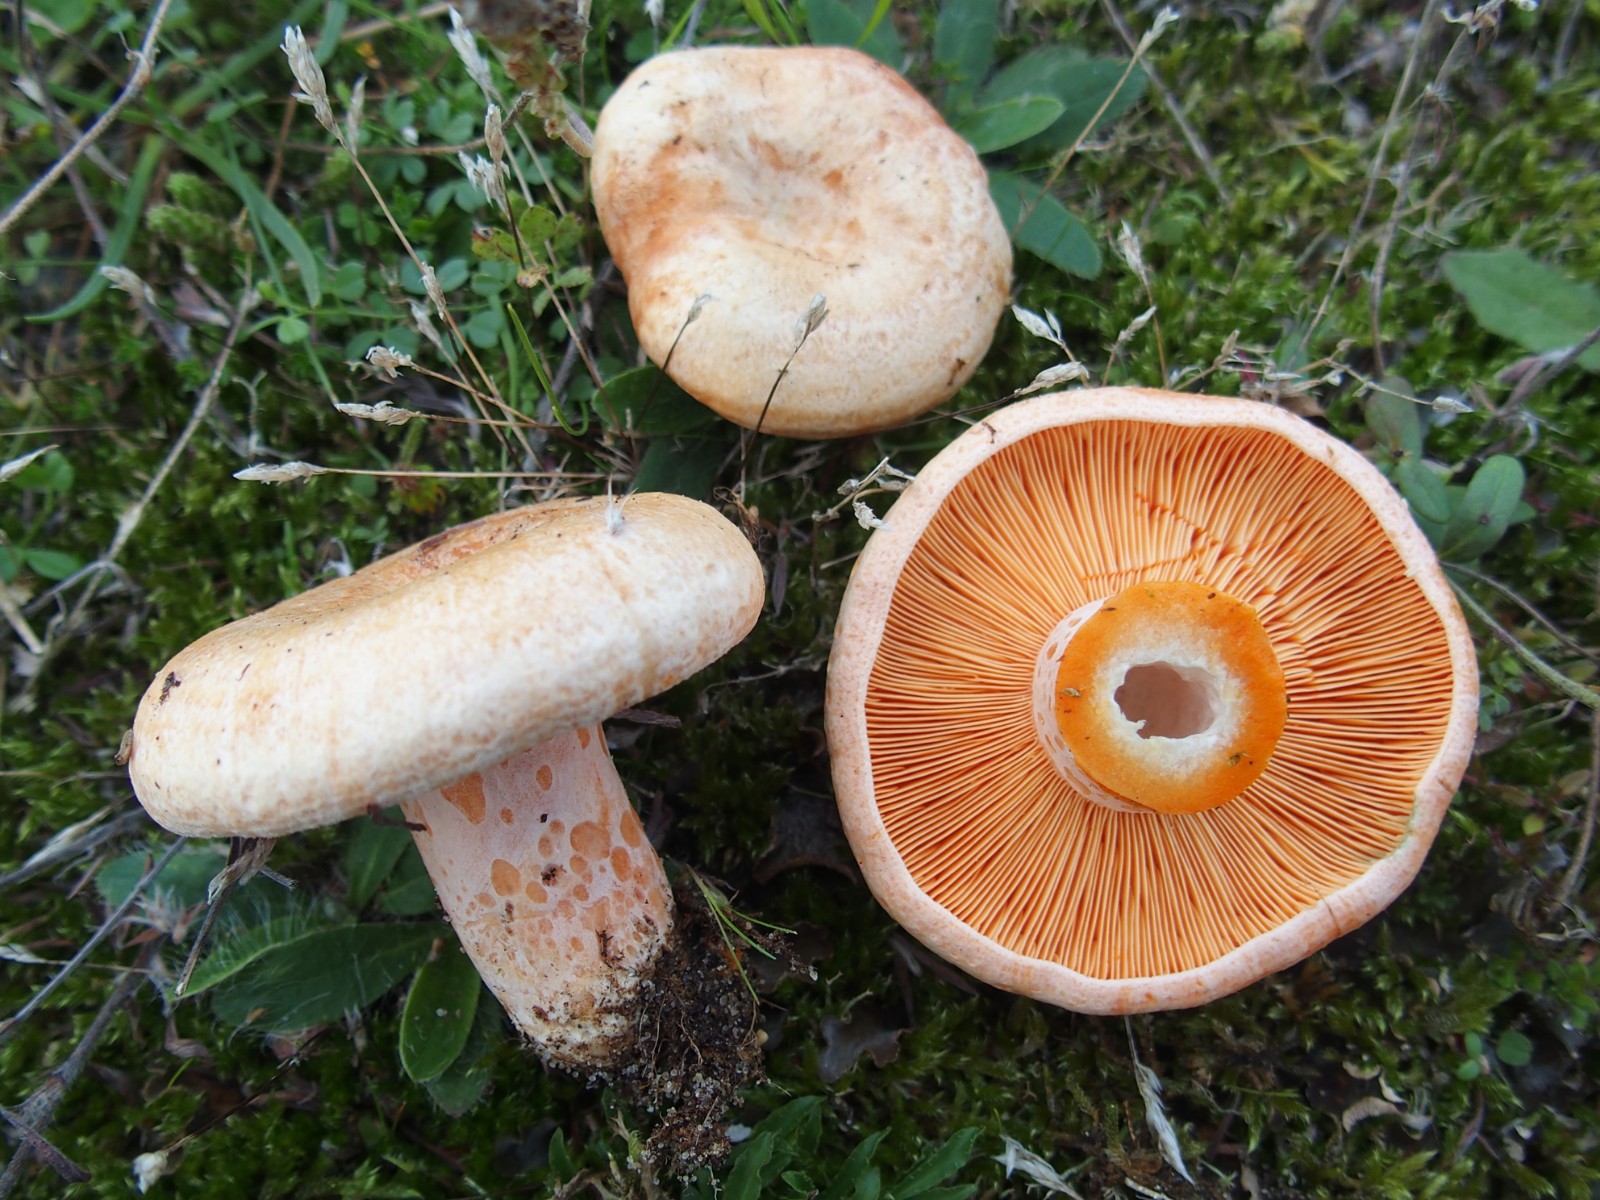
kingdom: Fungi
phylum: Basidiomycota
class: Agaricomycetes
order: Russulales
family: Russulaceae
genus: Lactarius
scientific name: Lactarius deliciosus
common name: velsmagende mælkehat
